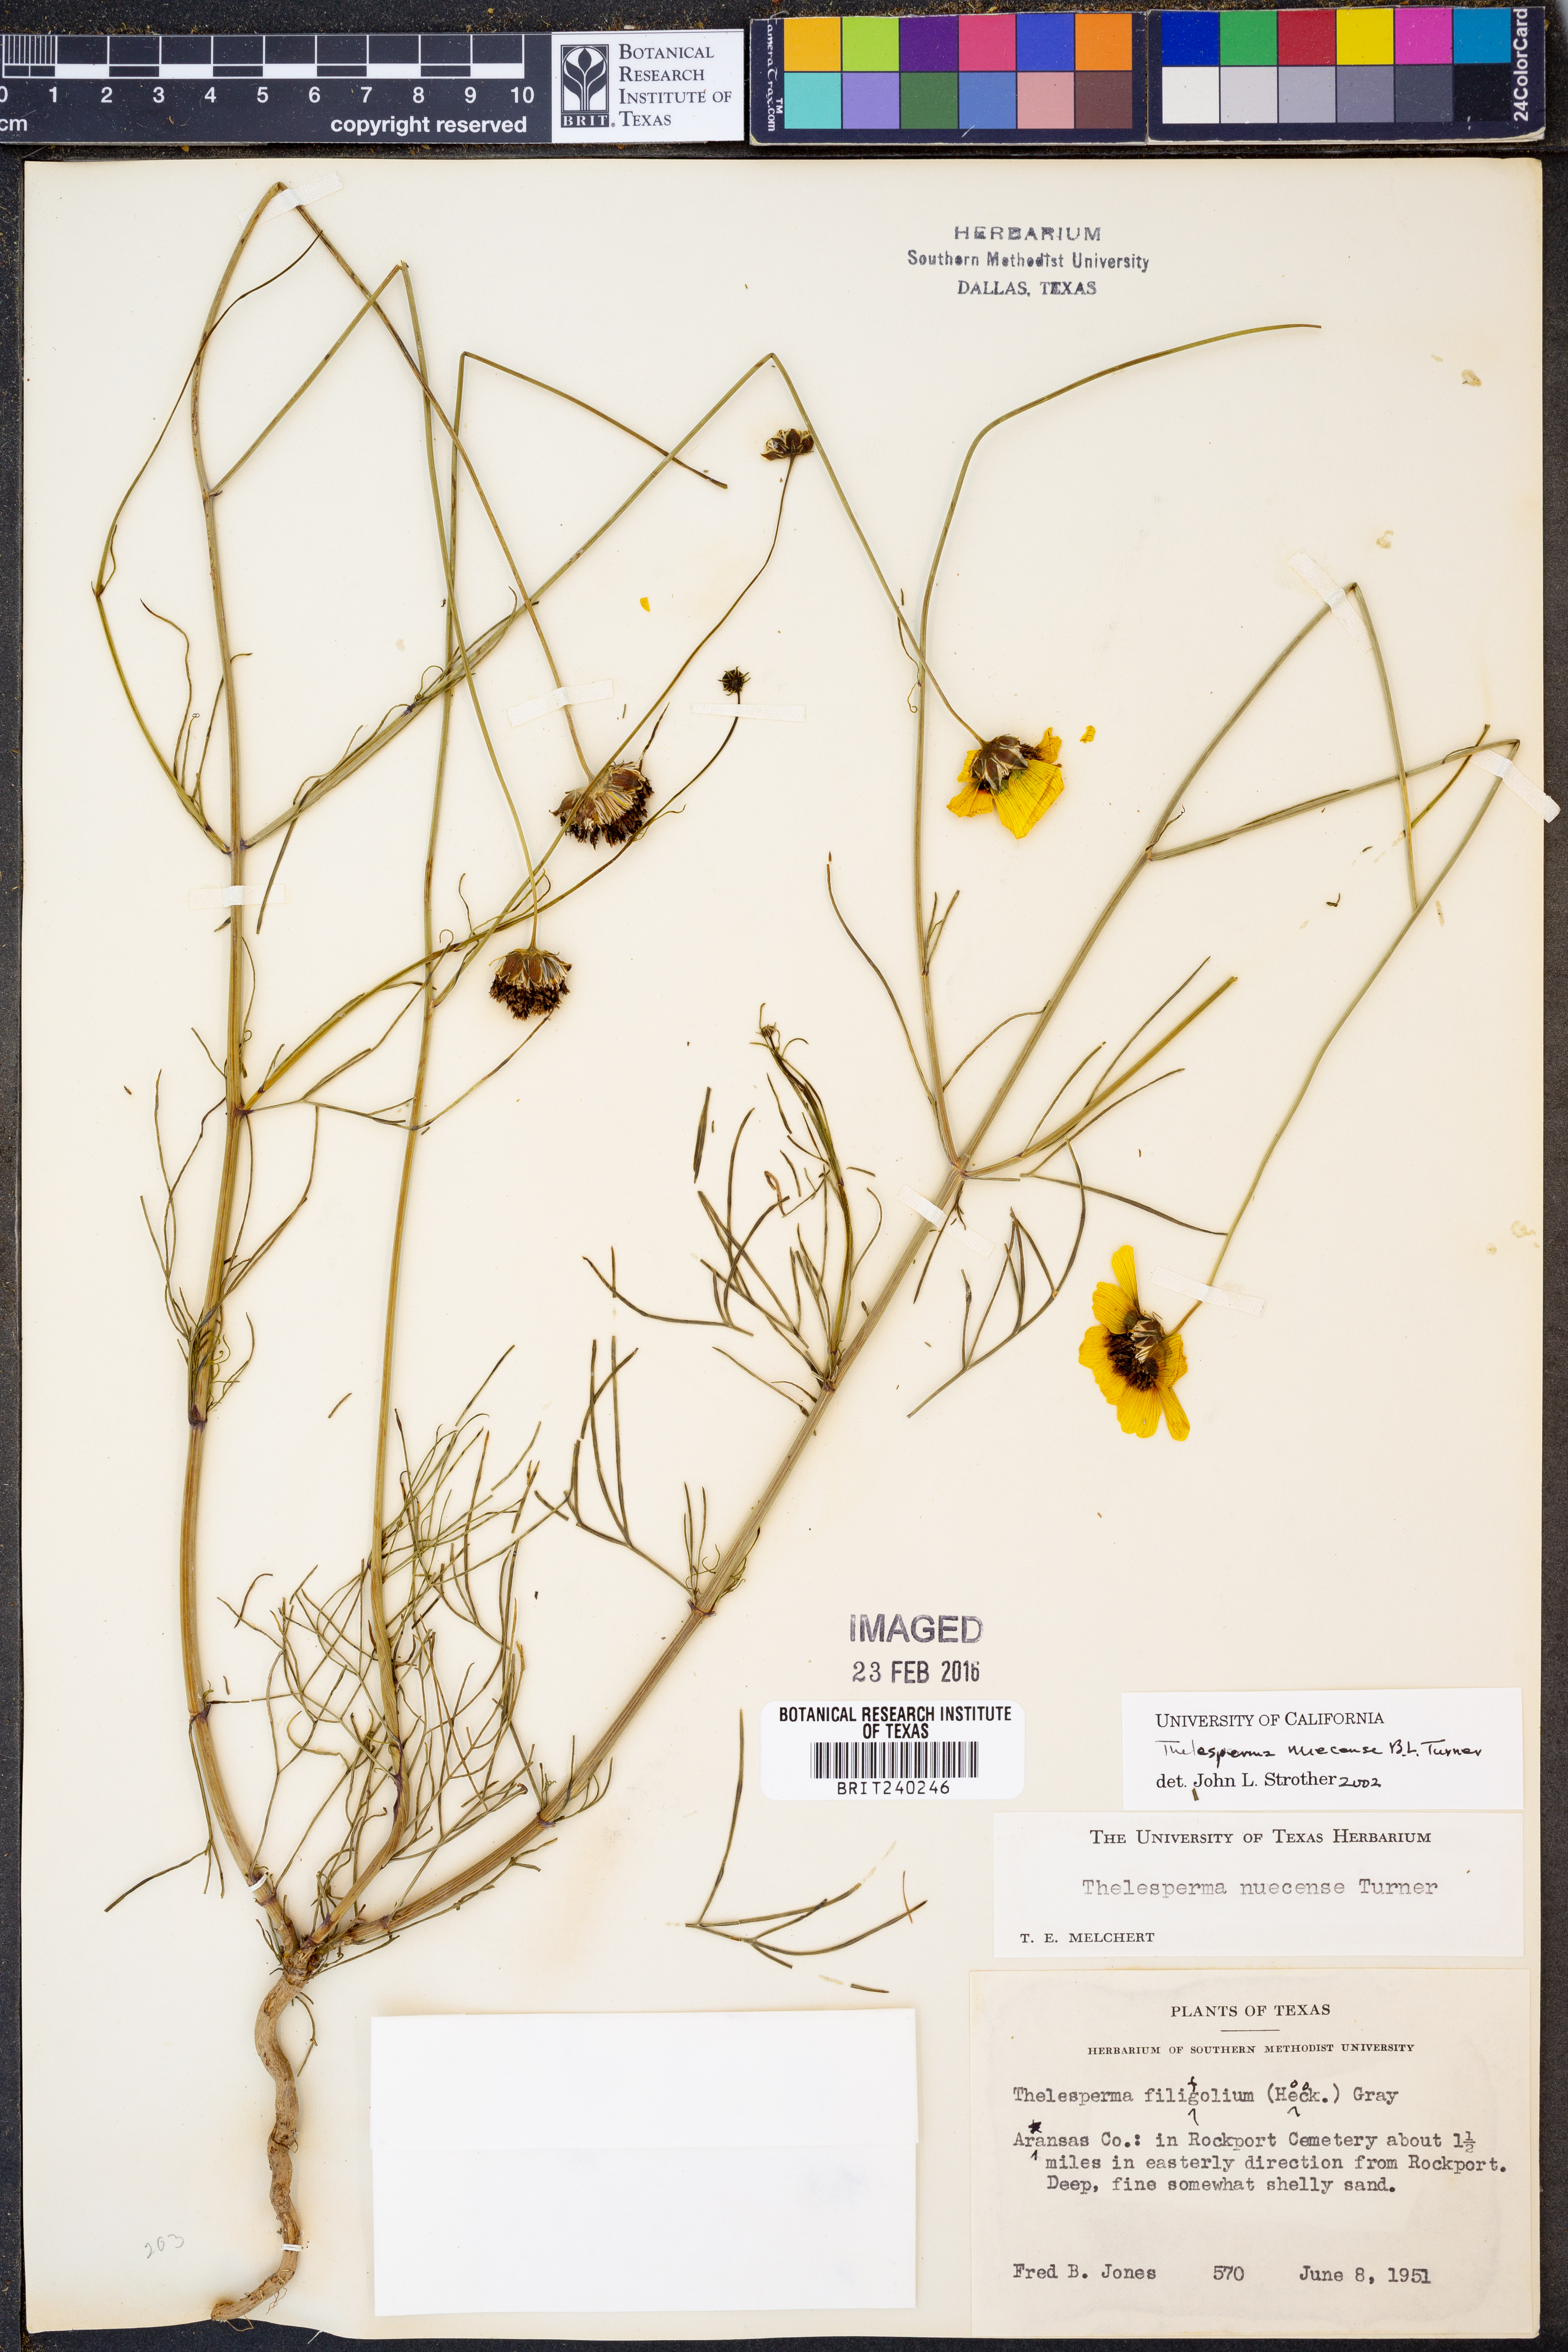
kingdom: Plantae
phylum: Tracheophyta
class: Magnoliopsida
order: Asterales
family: Asteraceae
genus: Thelesperma
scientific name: Thelesperma nuecense
